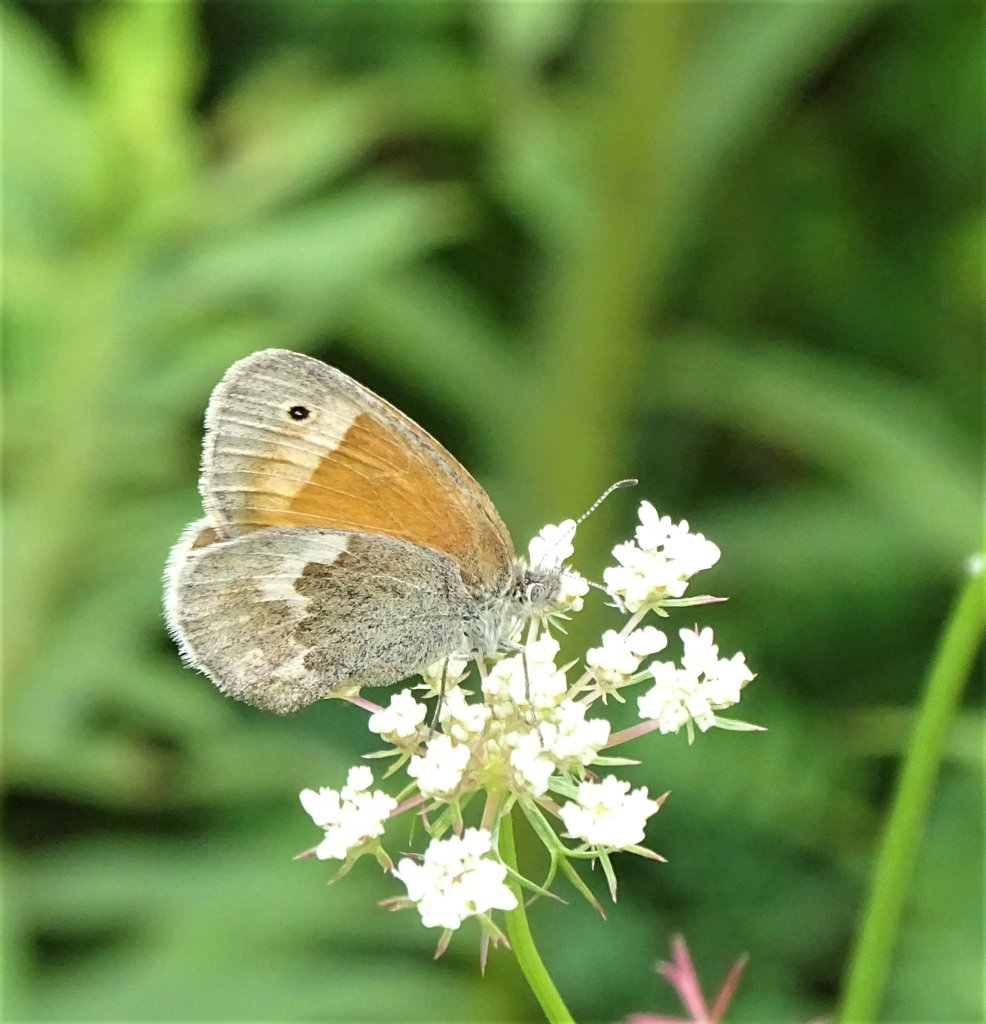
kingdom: Animalia
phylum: Arthropoda
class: Insecta
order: Lepidoptera
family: Nymphalidae
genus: Coenonympha
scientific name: Coenonympha tullia
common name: Large Heath
